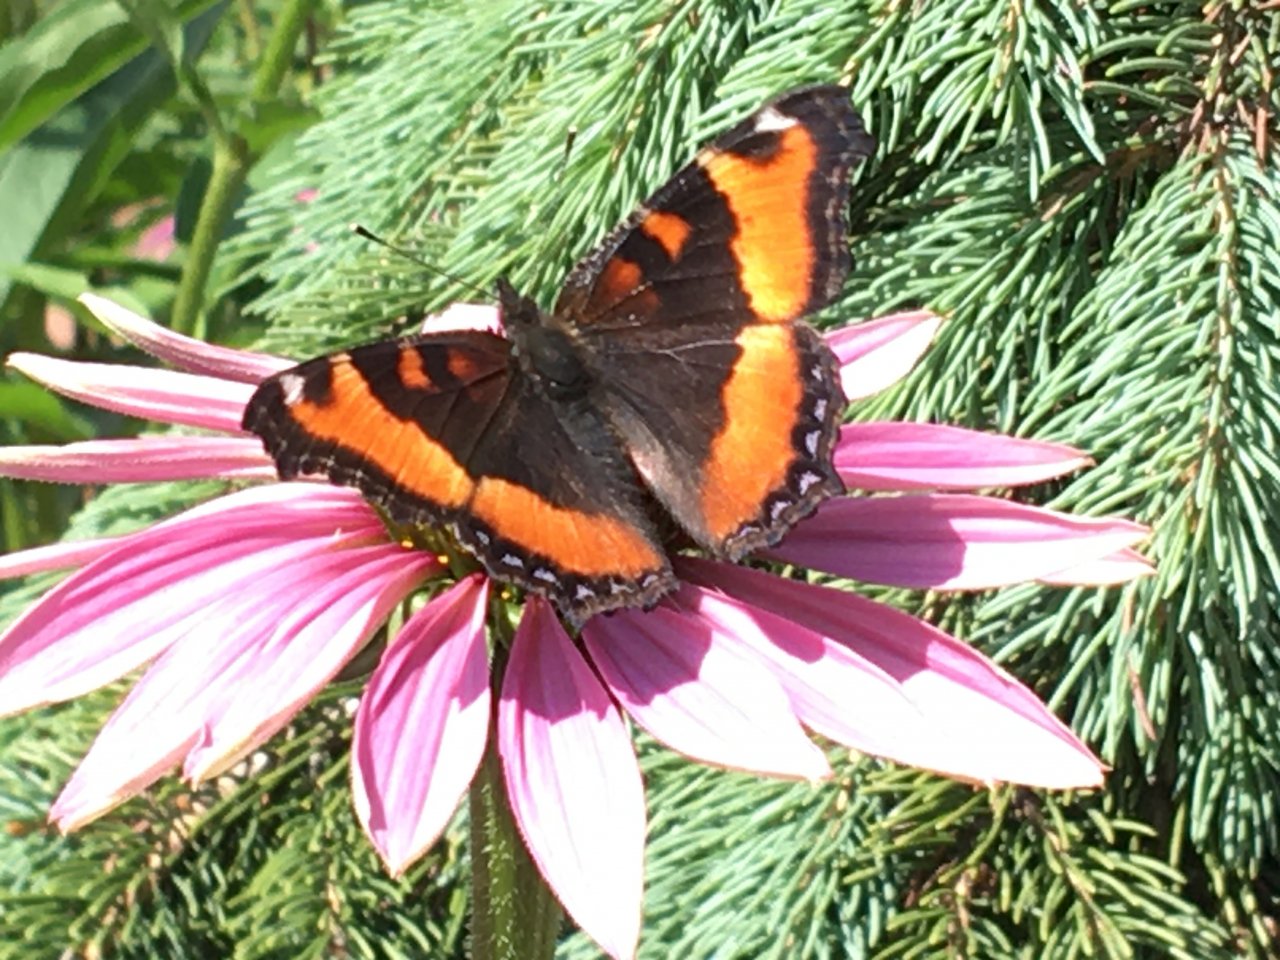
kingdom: Animalia
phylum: Arthropoda
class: Insecta
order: Lepidoptera
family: Nymphalidae
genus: Aglais
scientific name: Aglais milberti
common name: Milbert's Tortoiseshell
